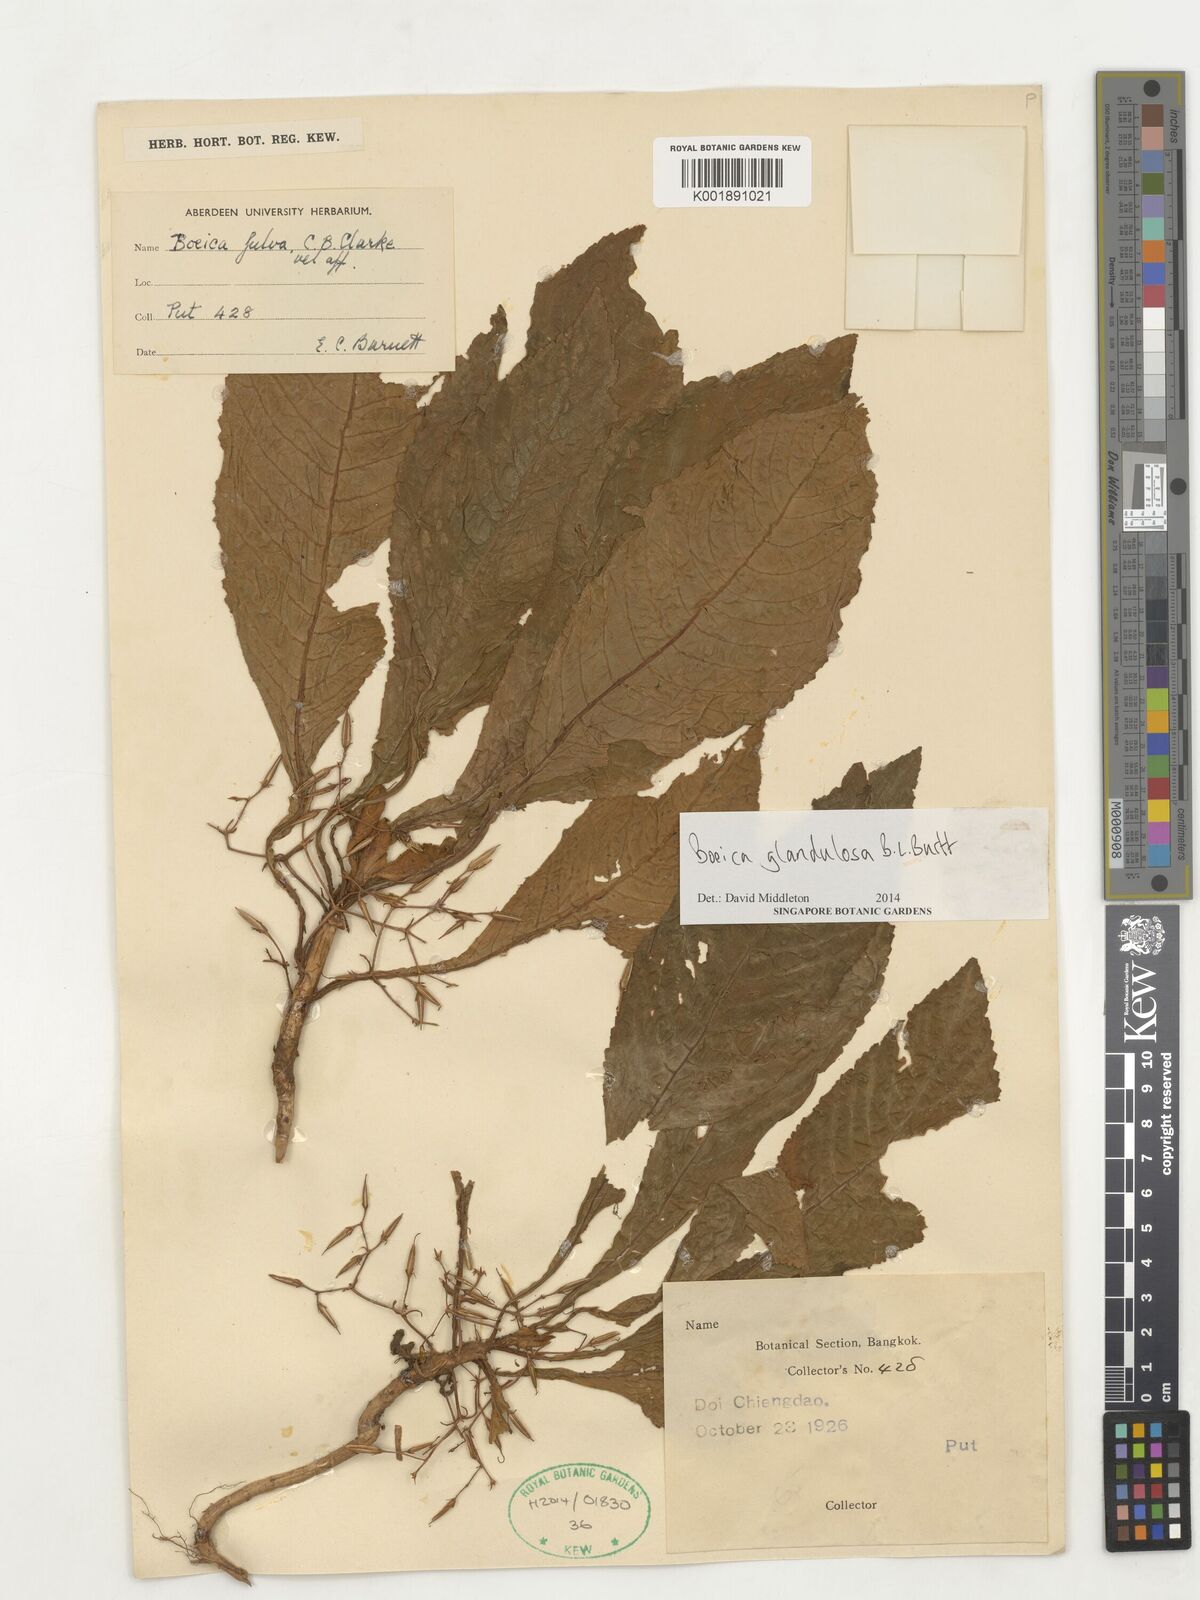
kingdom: Plantae
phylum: Tracheophyta
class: Magnoliopsida
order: Lamiales
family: Gesneriaceae
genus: Boeica
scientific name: Boeica glandulosa
